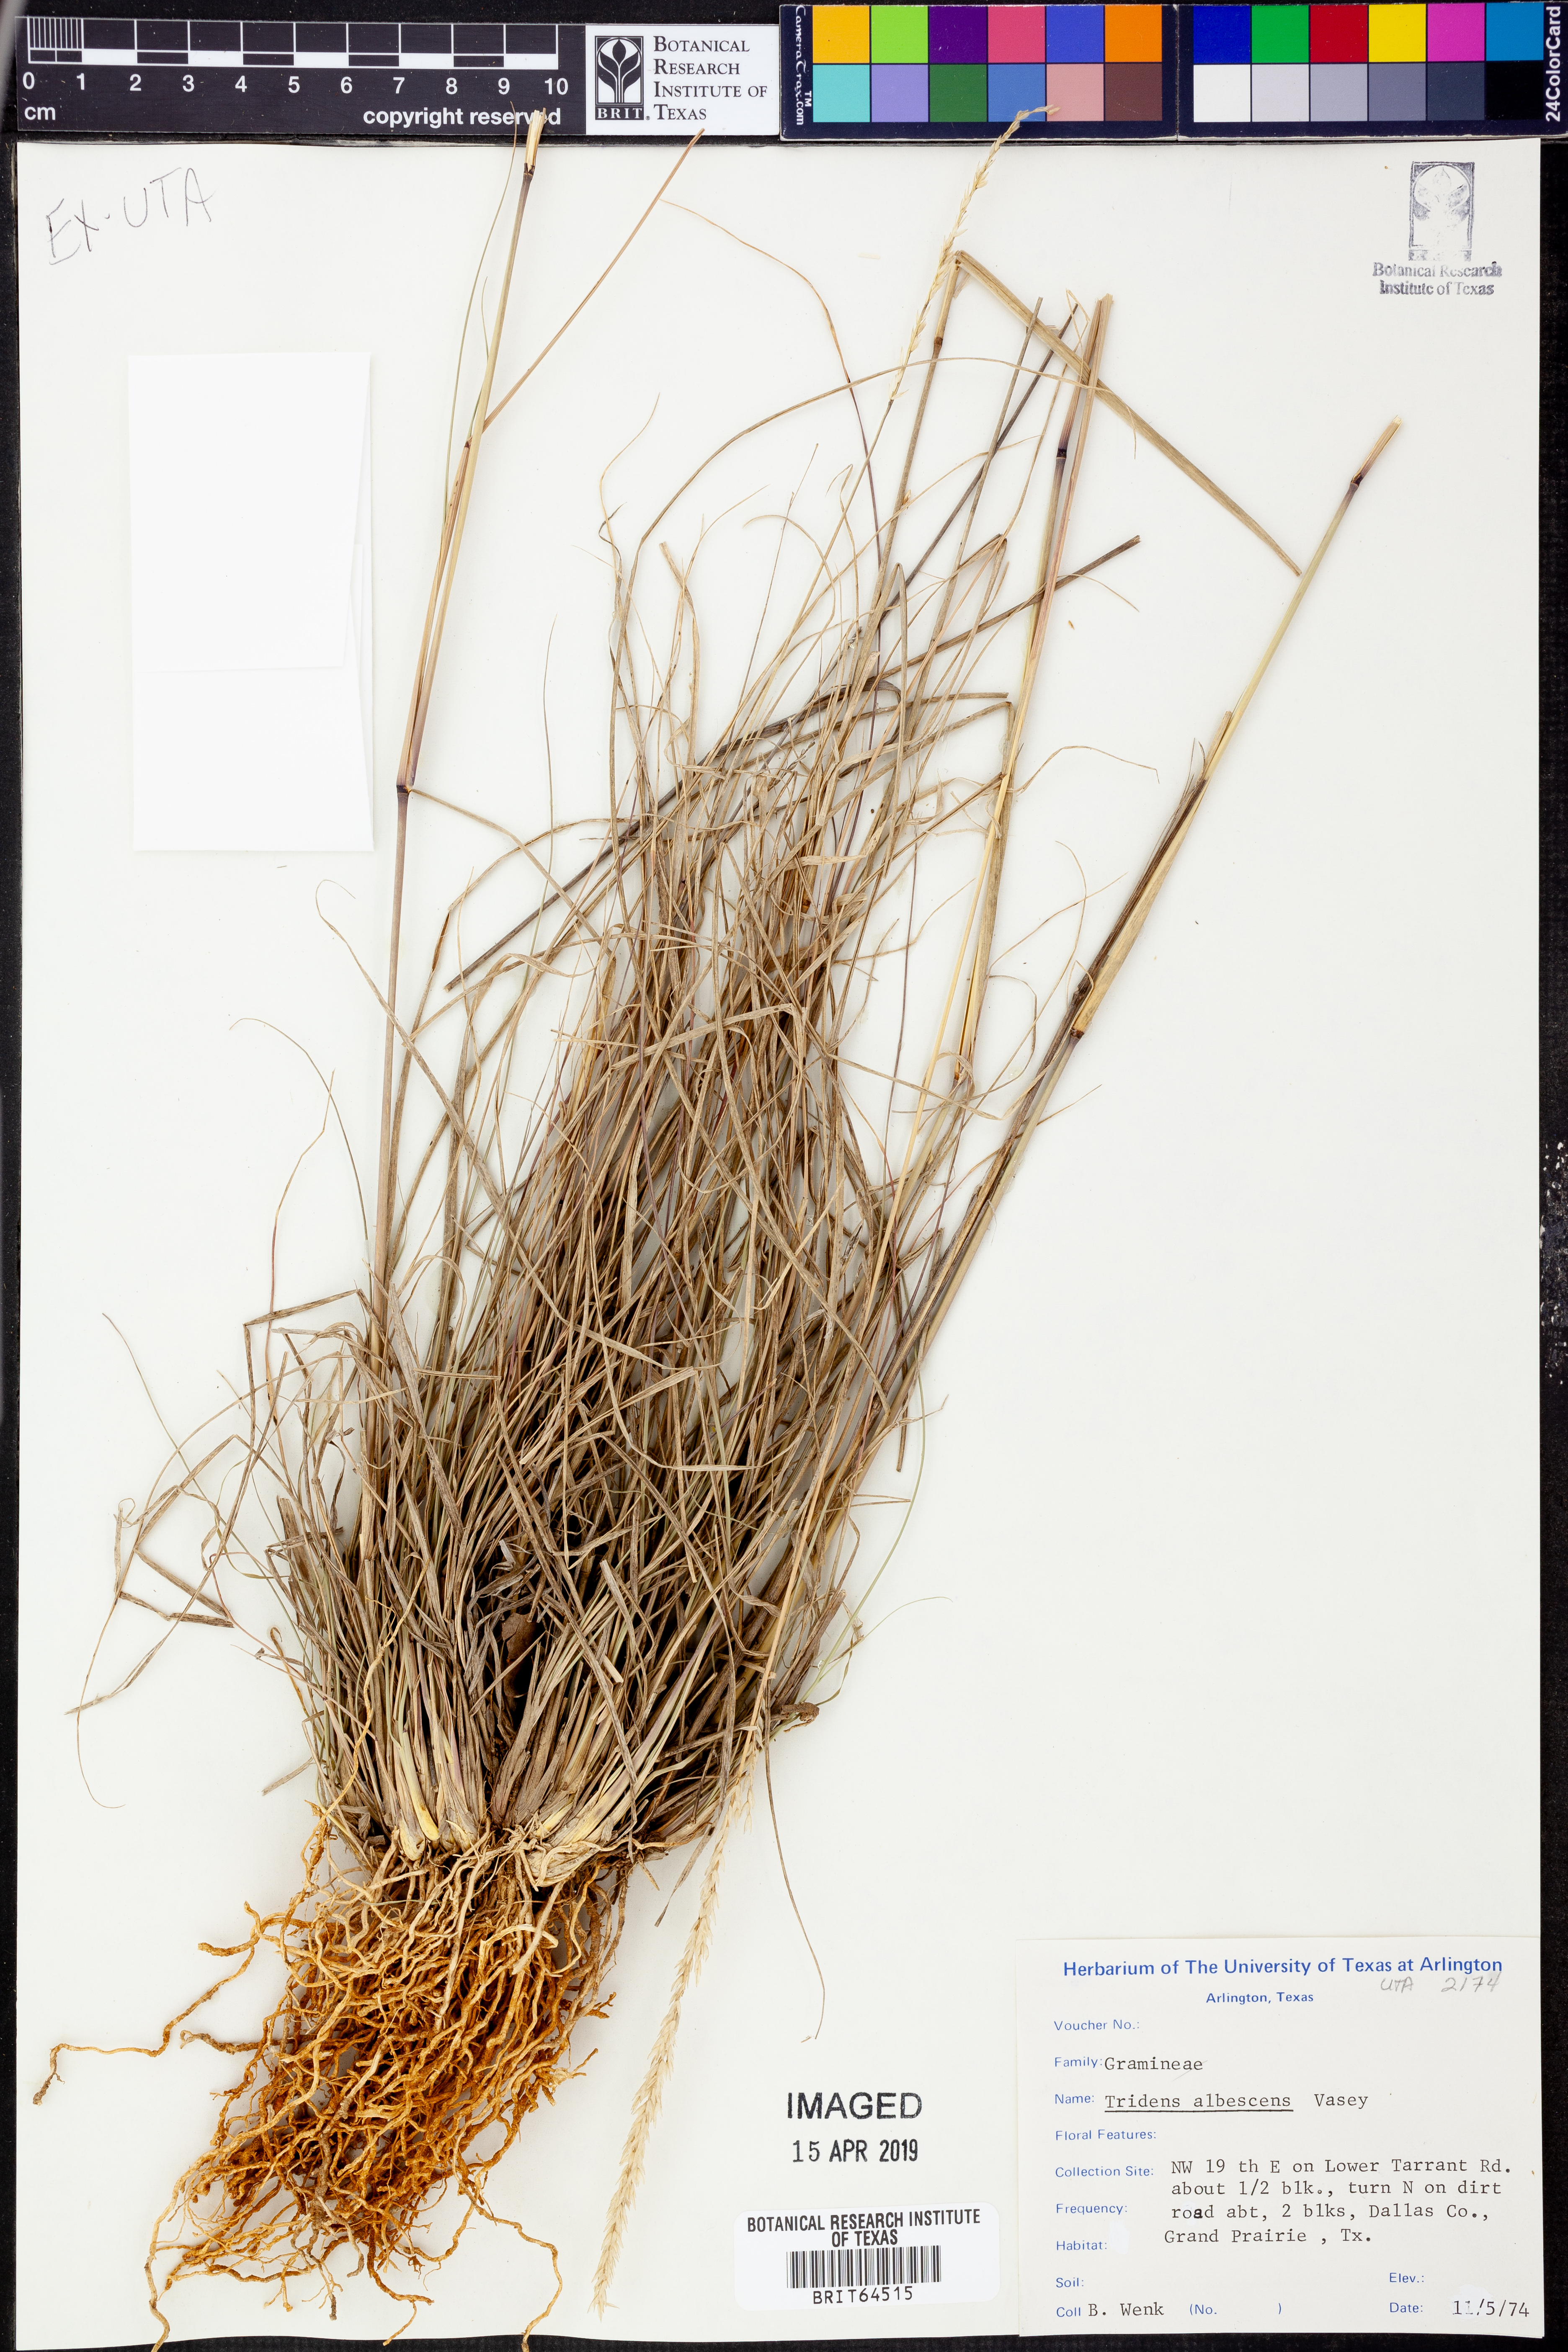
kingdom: Plantae
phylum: Tracheophyta
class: Liliopsida
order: Poales
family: Poaceae
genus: Tridens
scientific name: Tridens albescens
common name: White tridens
